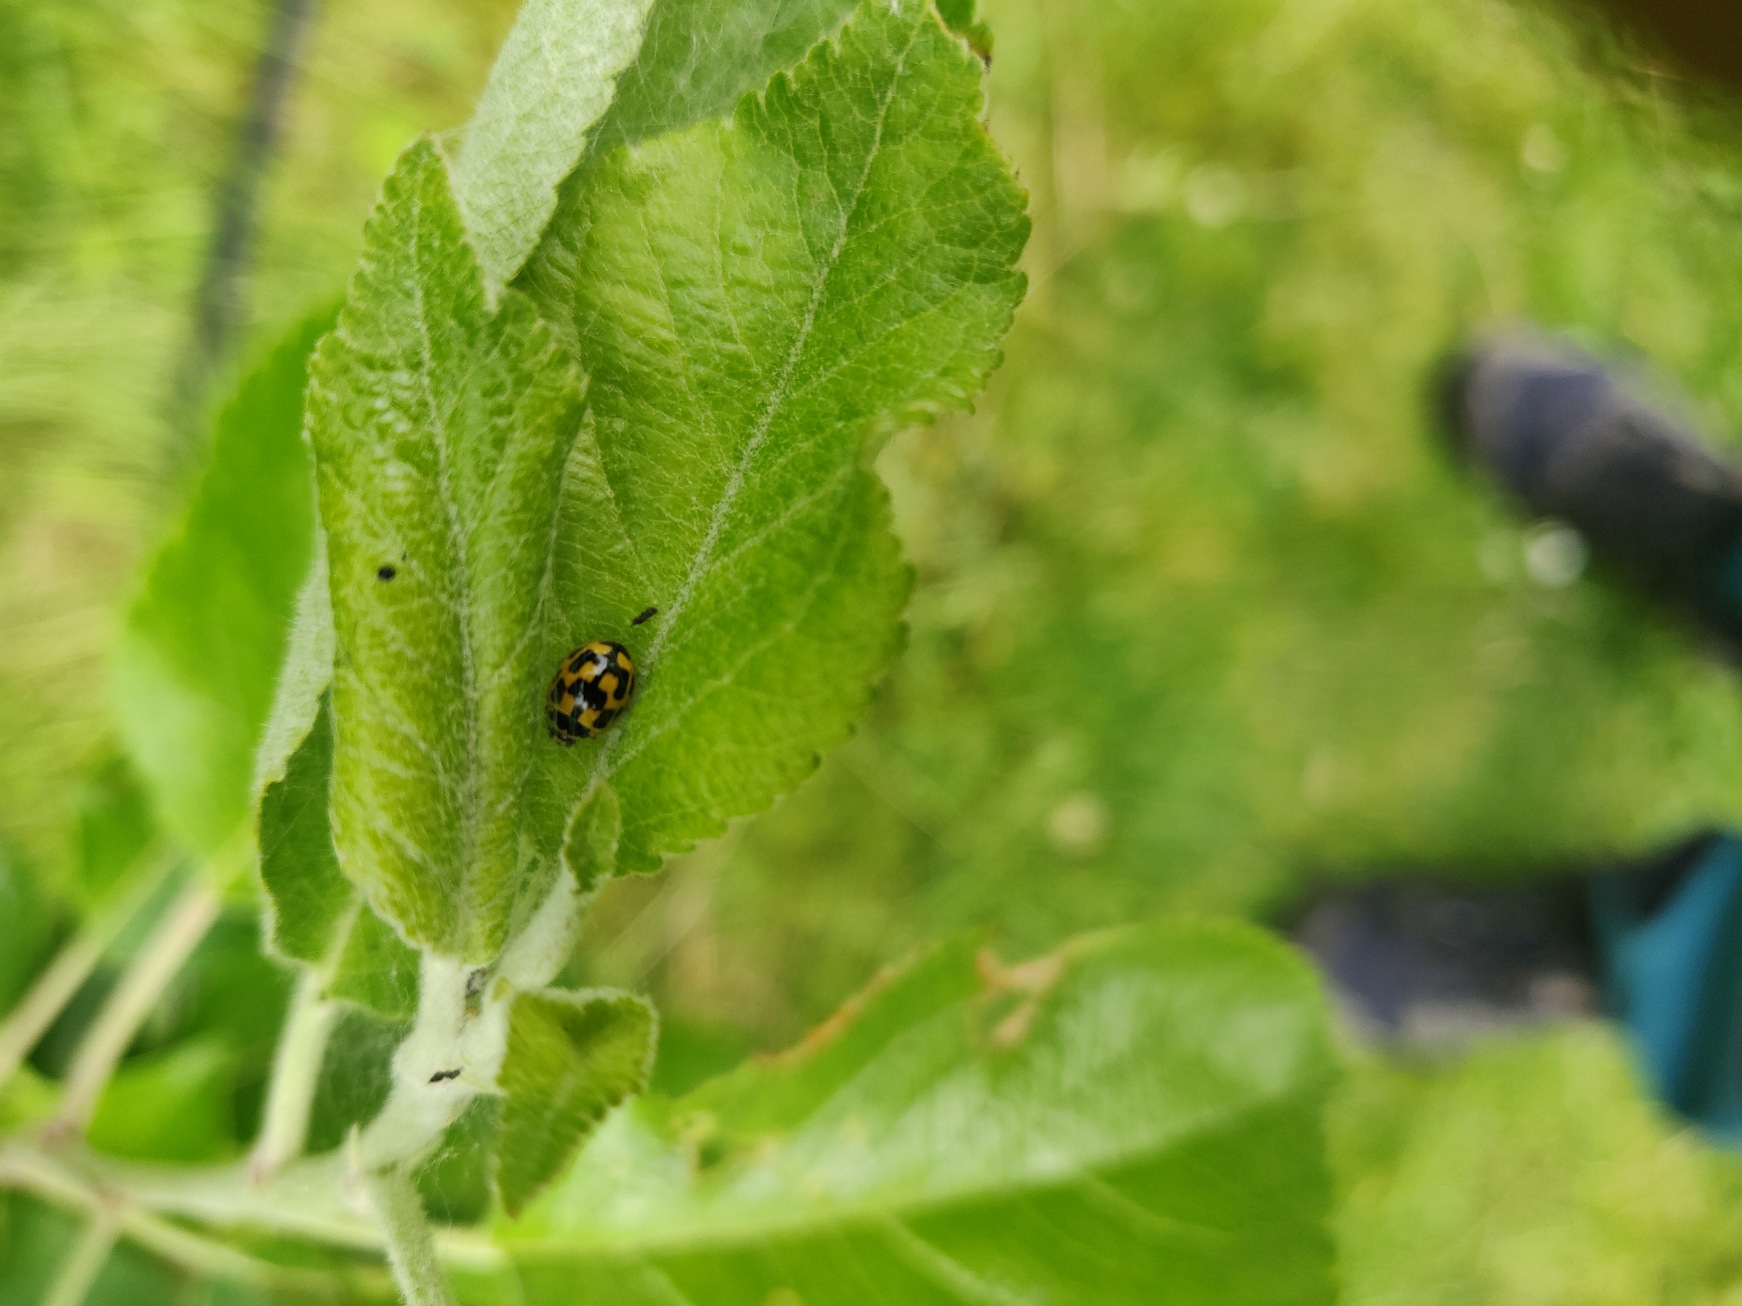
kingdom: Animalia
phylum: Arthropoda
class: Insecta
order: Coleoptera
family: Coccinellidae
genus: Propylaea
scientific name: Propylaea quatuordecimpunctata
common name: Skakbræt
